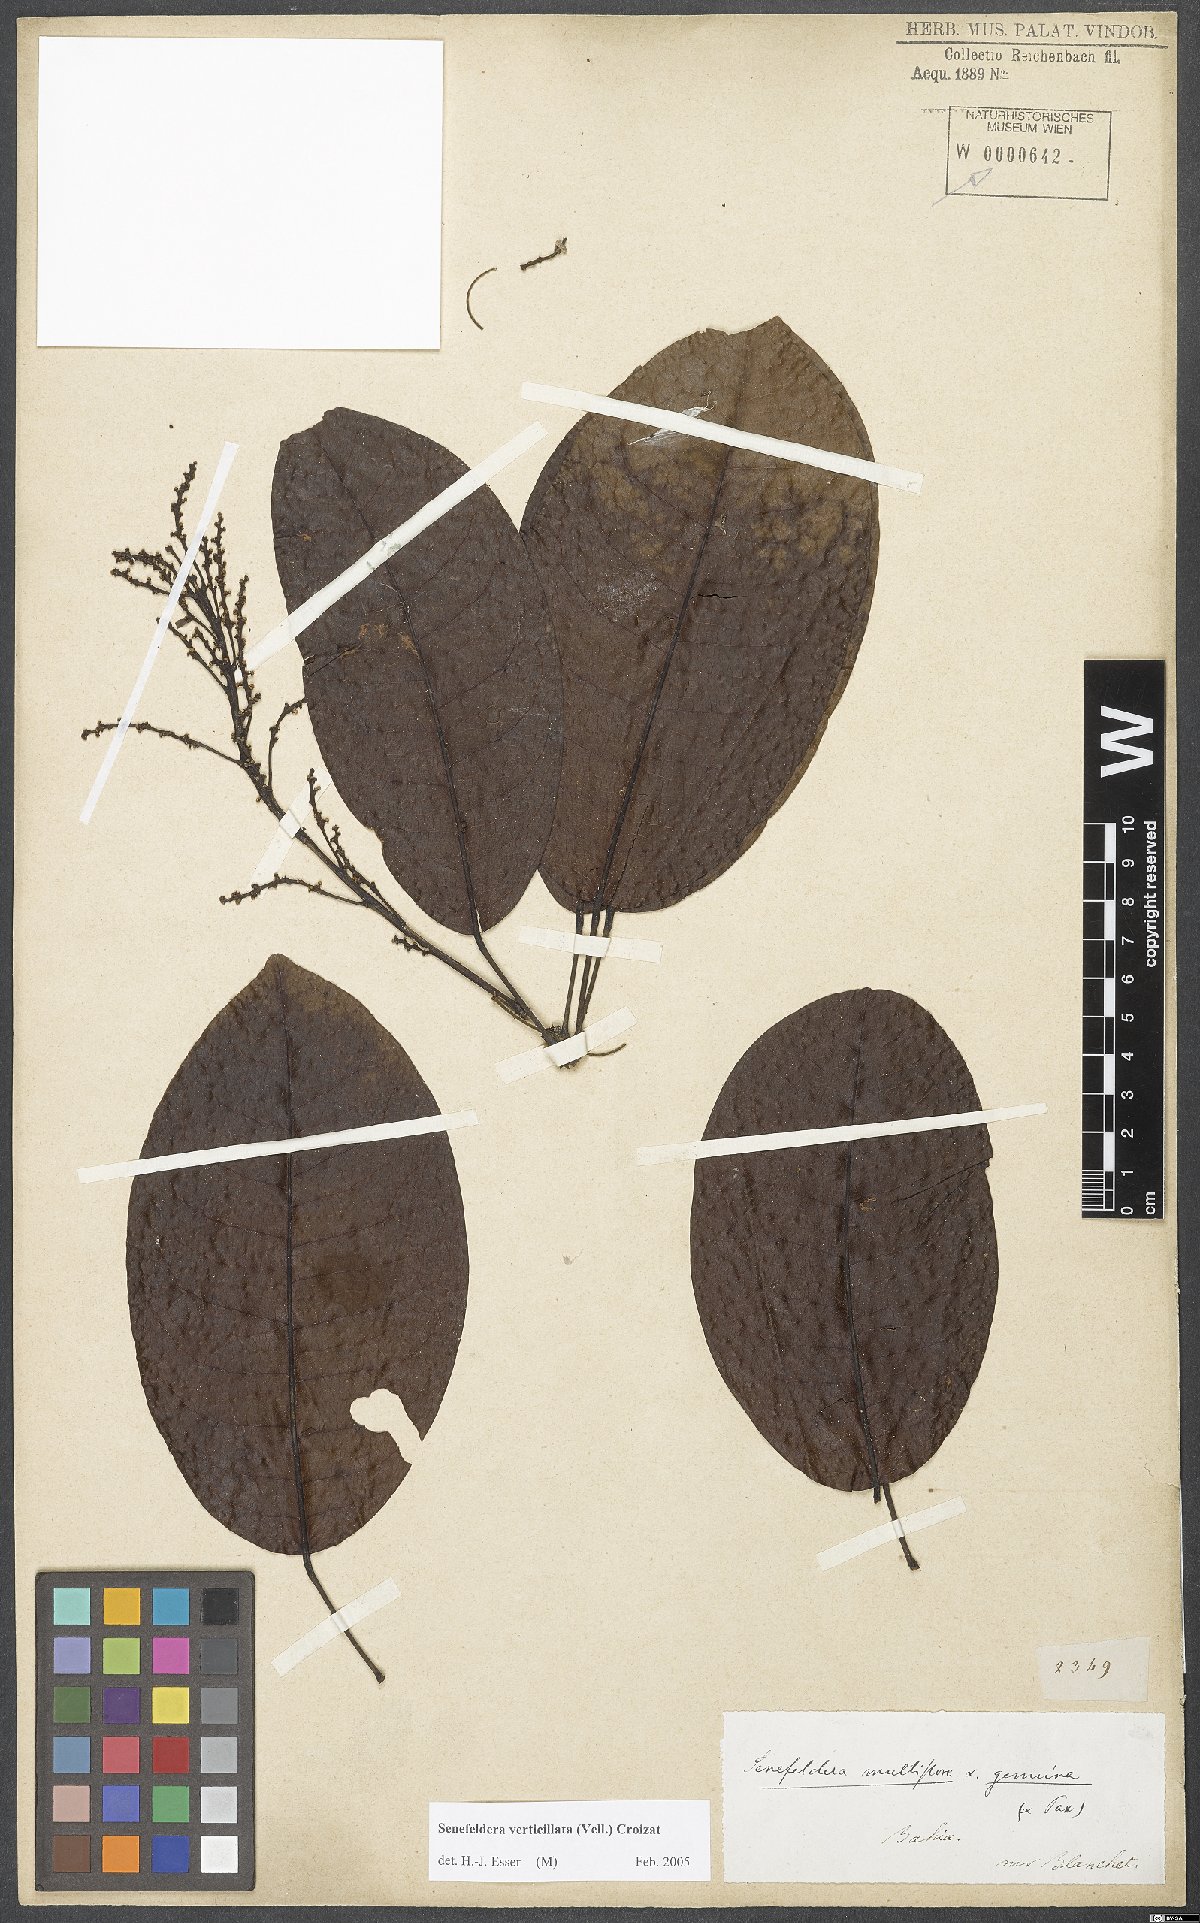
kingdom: Plantae
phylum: Tracheophyta
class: Magnoliopsida
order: Malpighiales
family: Euphorbiaceae
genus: Senefeldera
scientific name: Senefeldera verticillata
